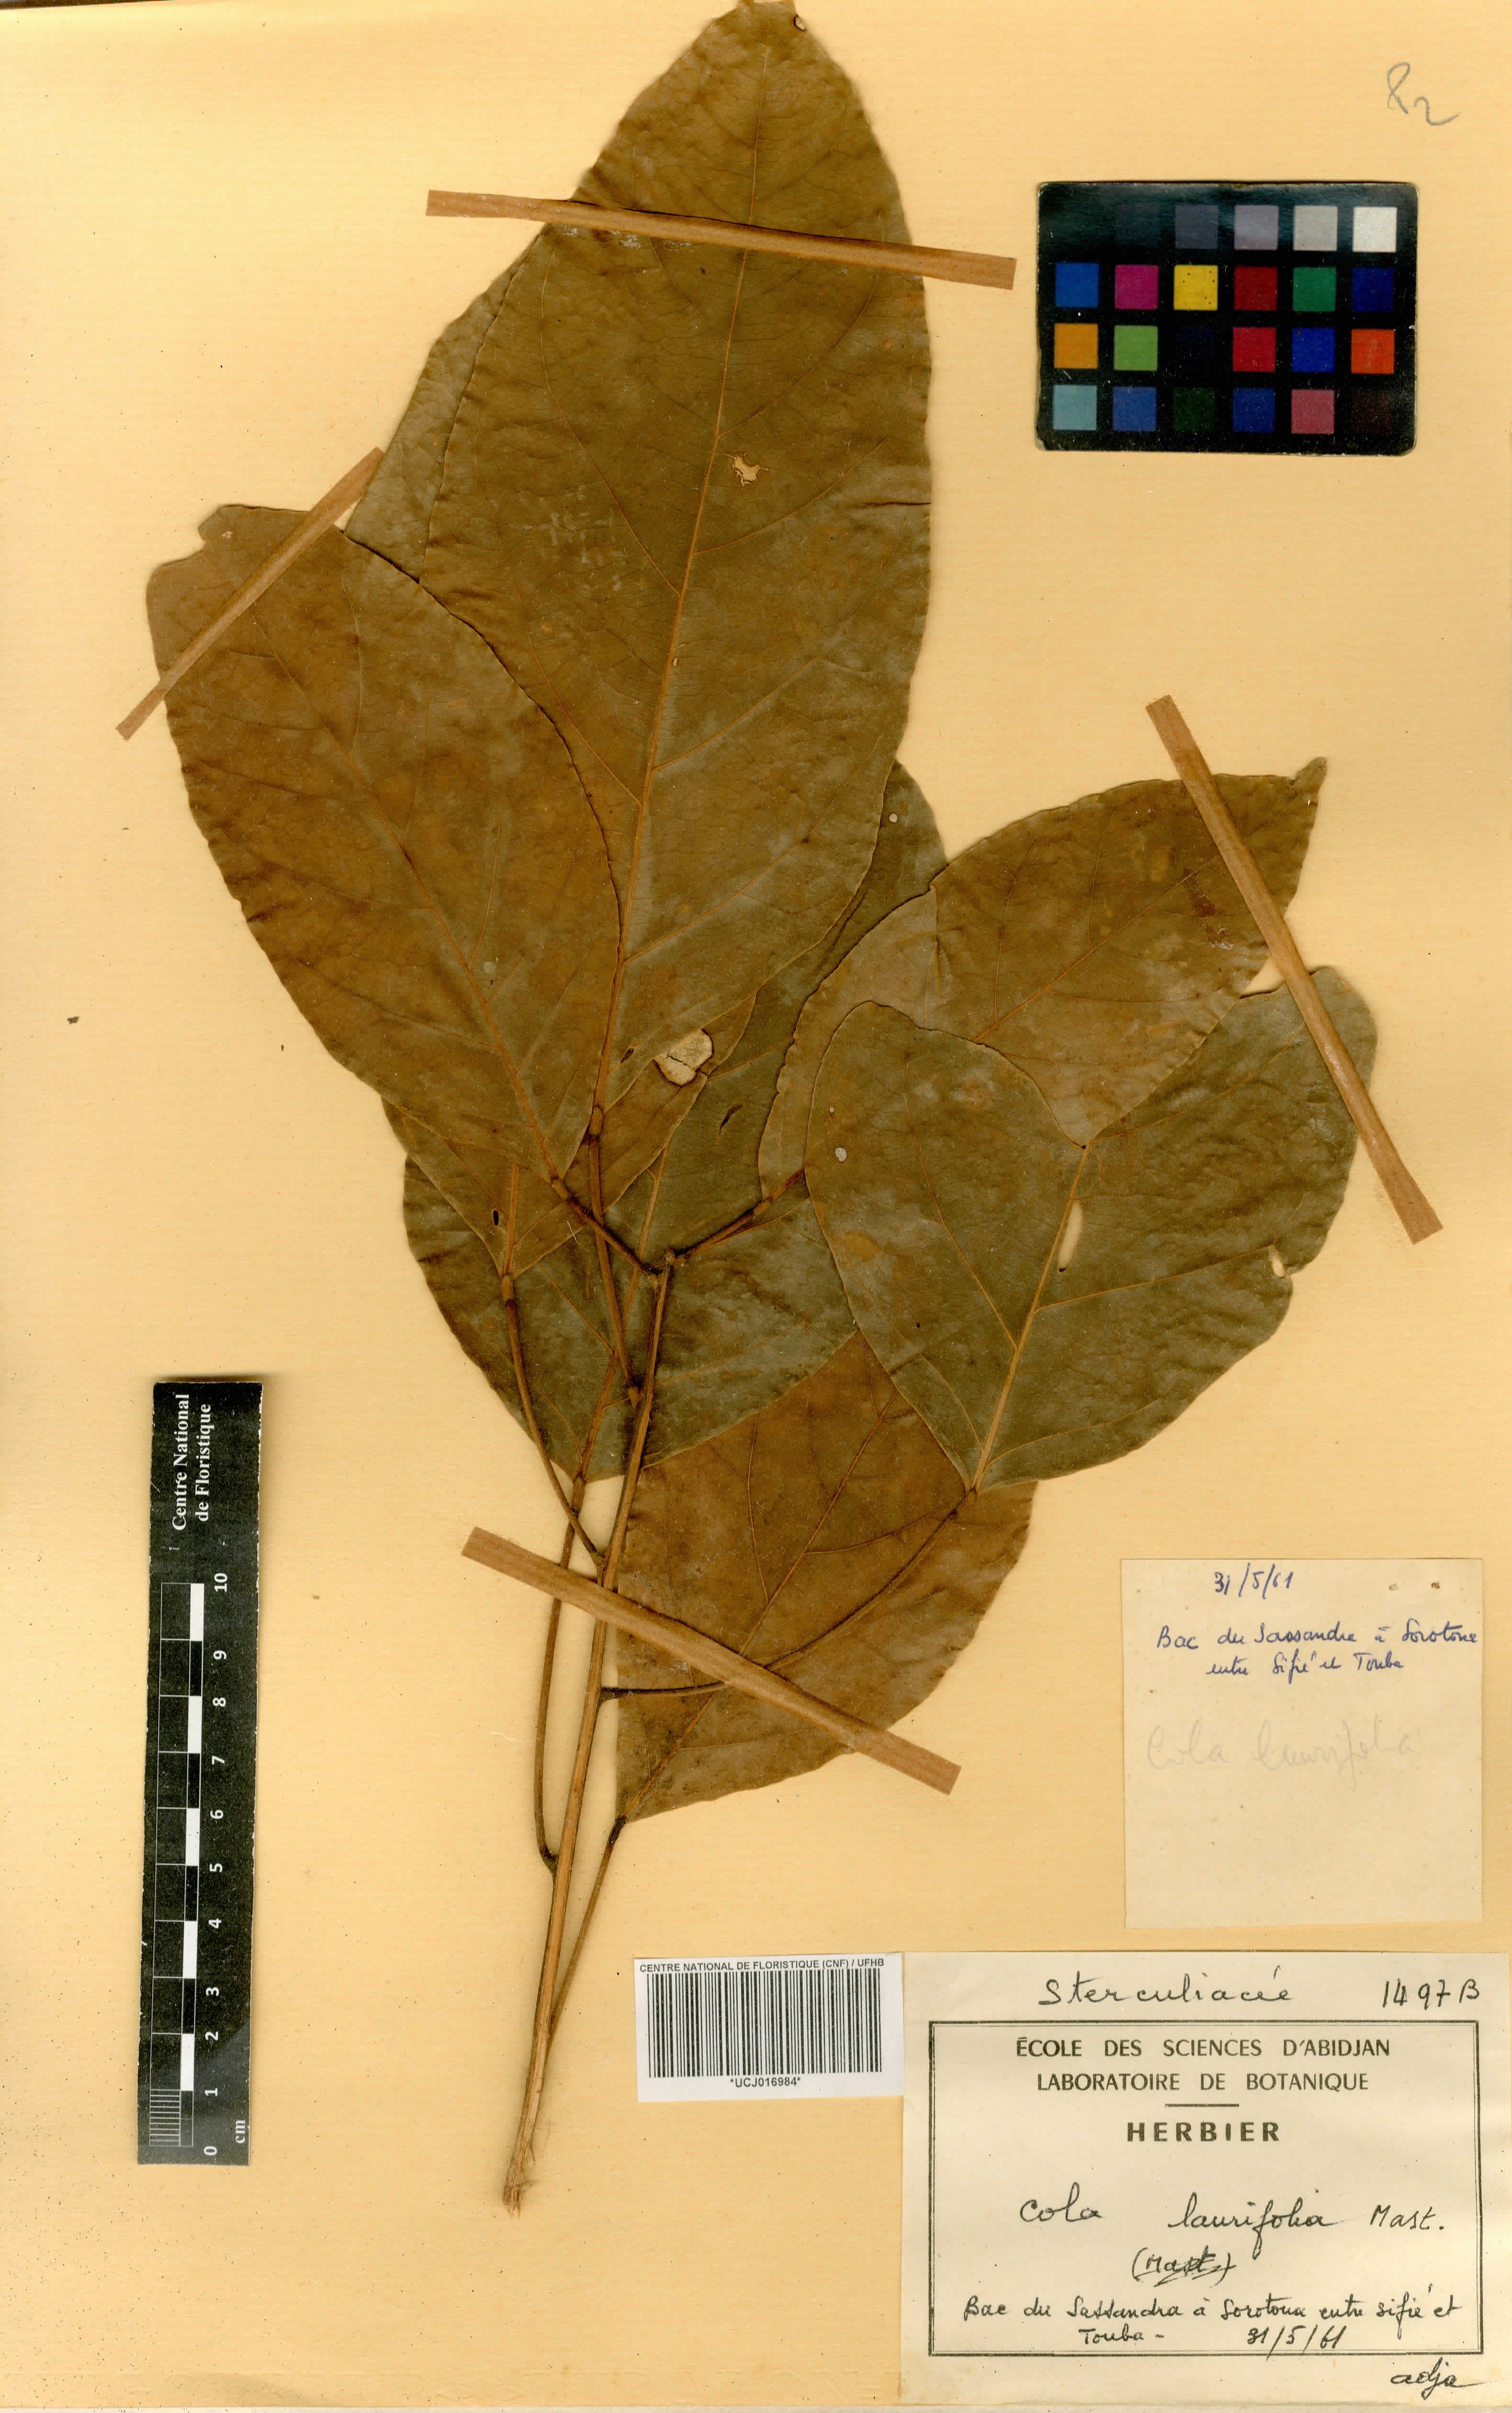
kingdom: Plantae
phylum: Tracheophyta
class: Magnoliopsida
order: Malvales
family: Malvaceae
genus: Cola
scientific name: Cola laurifolia
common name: Laurel-leaved kola
